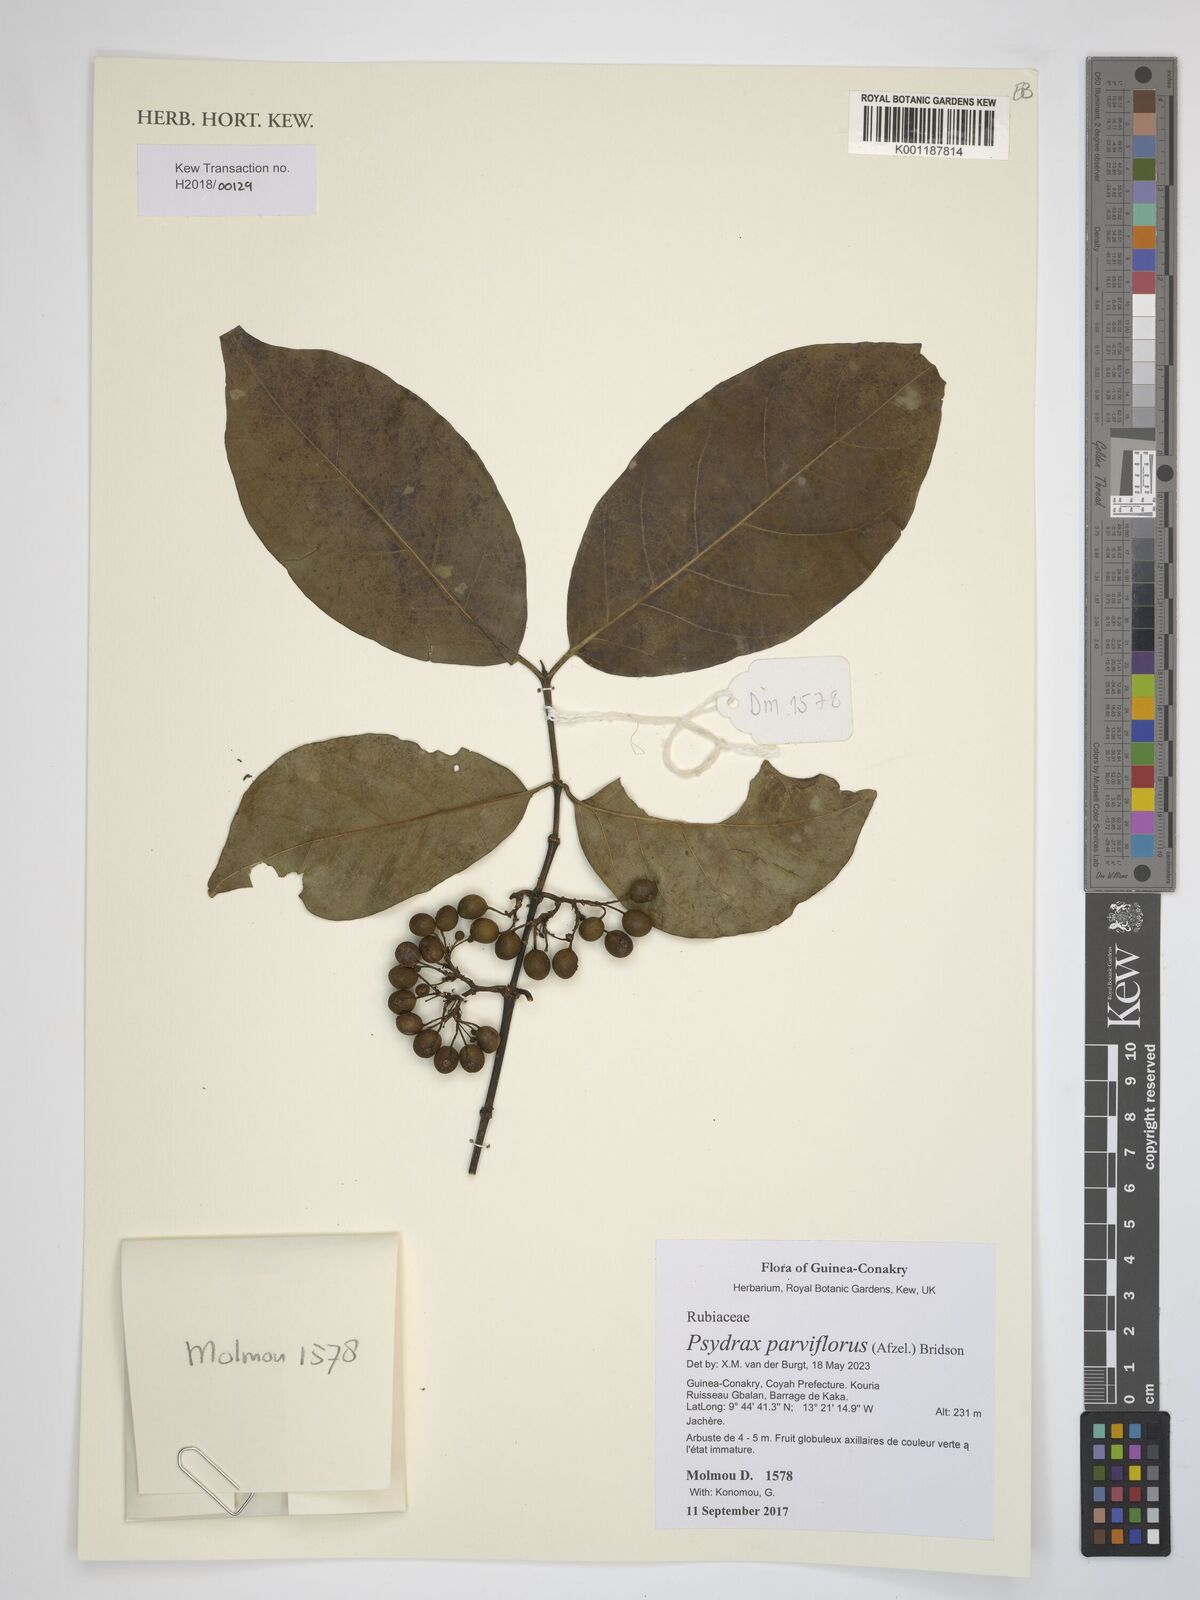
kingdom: Plantae
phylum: Tracheophyta
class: Magnoliopsida
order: Gentianales
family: Rubiaceae
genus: Psydrax
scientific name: Psydrax parviflorus
